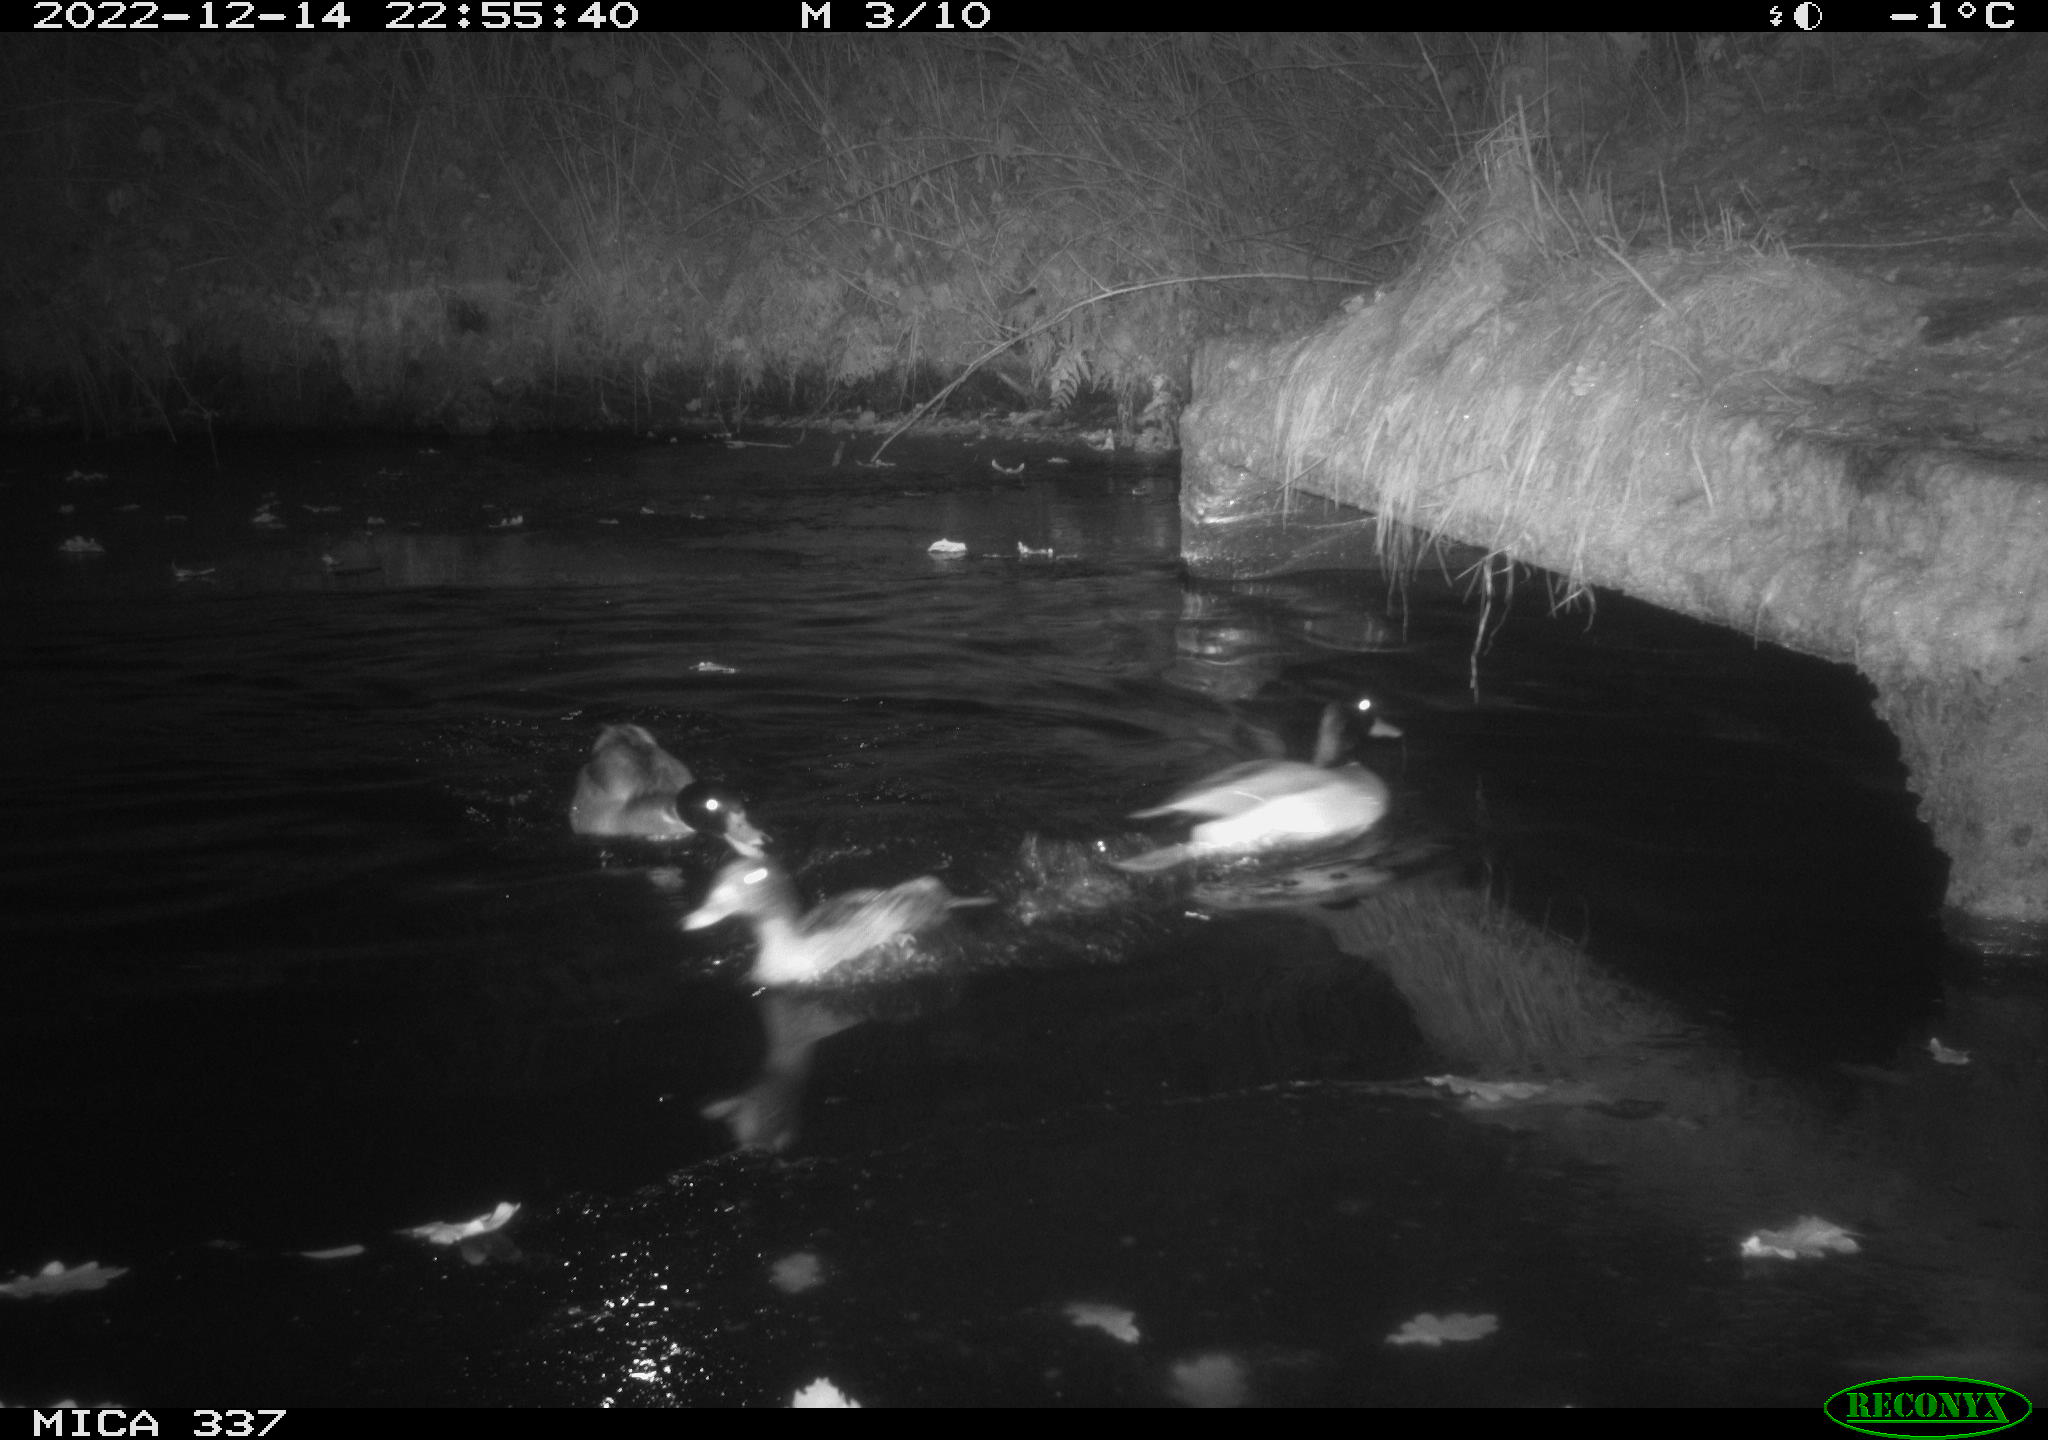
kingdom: Animalia
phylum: Chordata
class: Aves
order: Anseriformes
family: Anatidae
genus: Anas
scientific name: Anas
